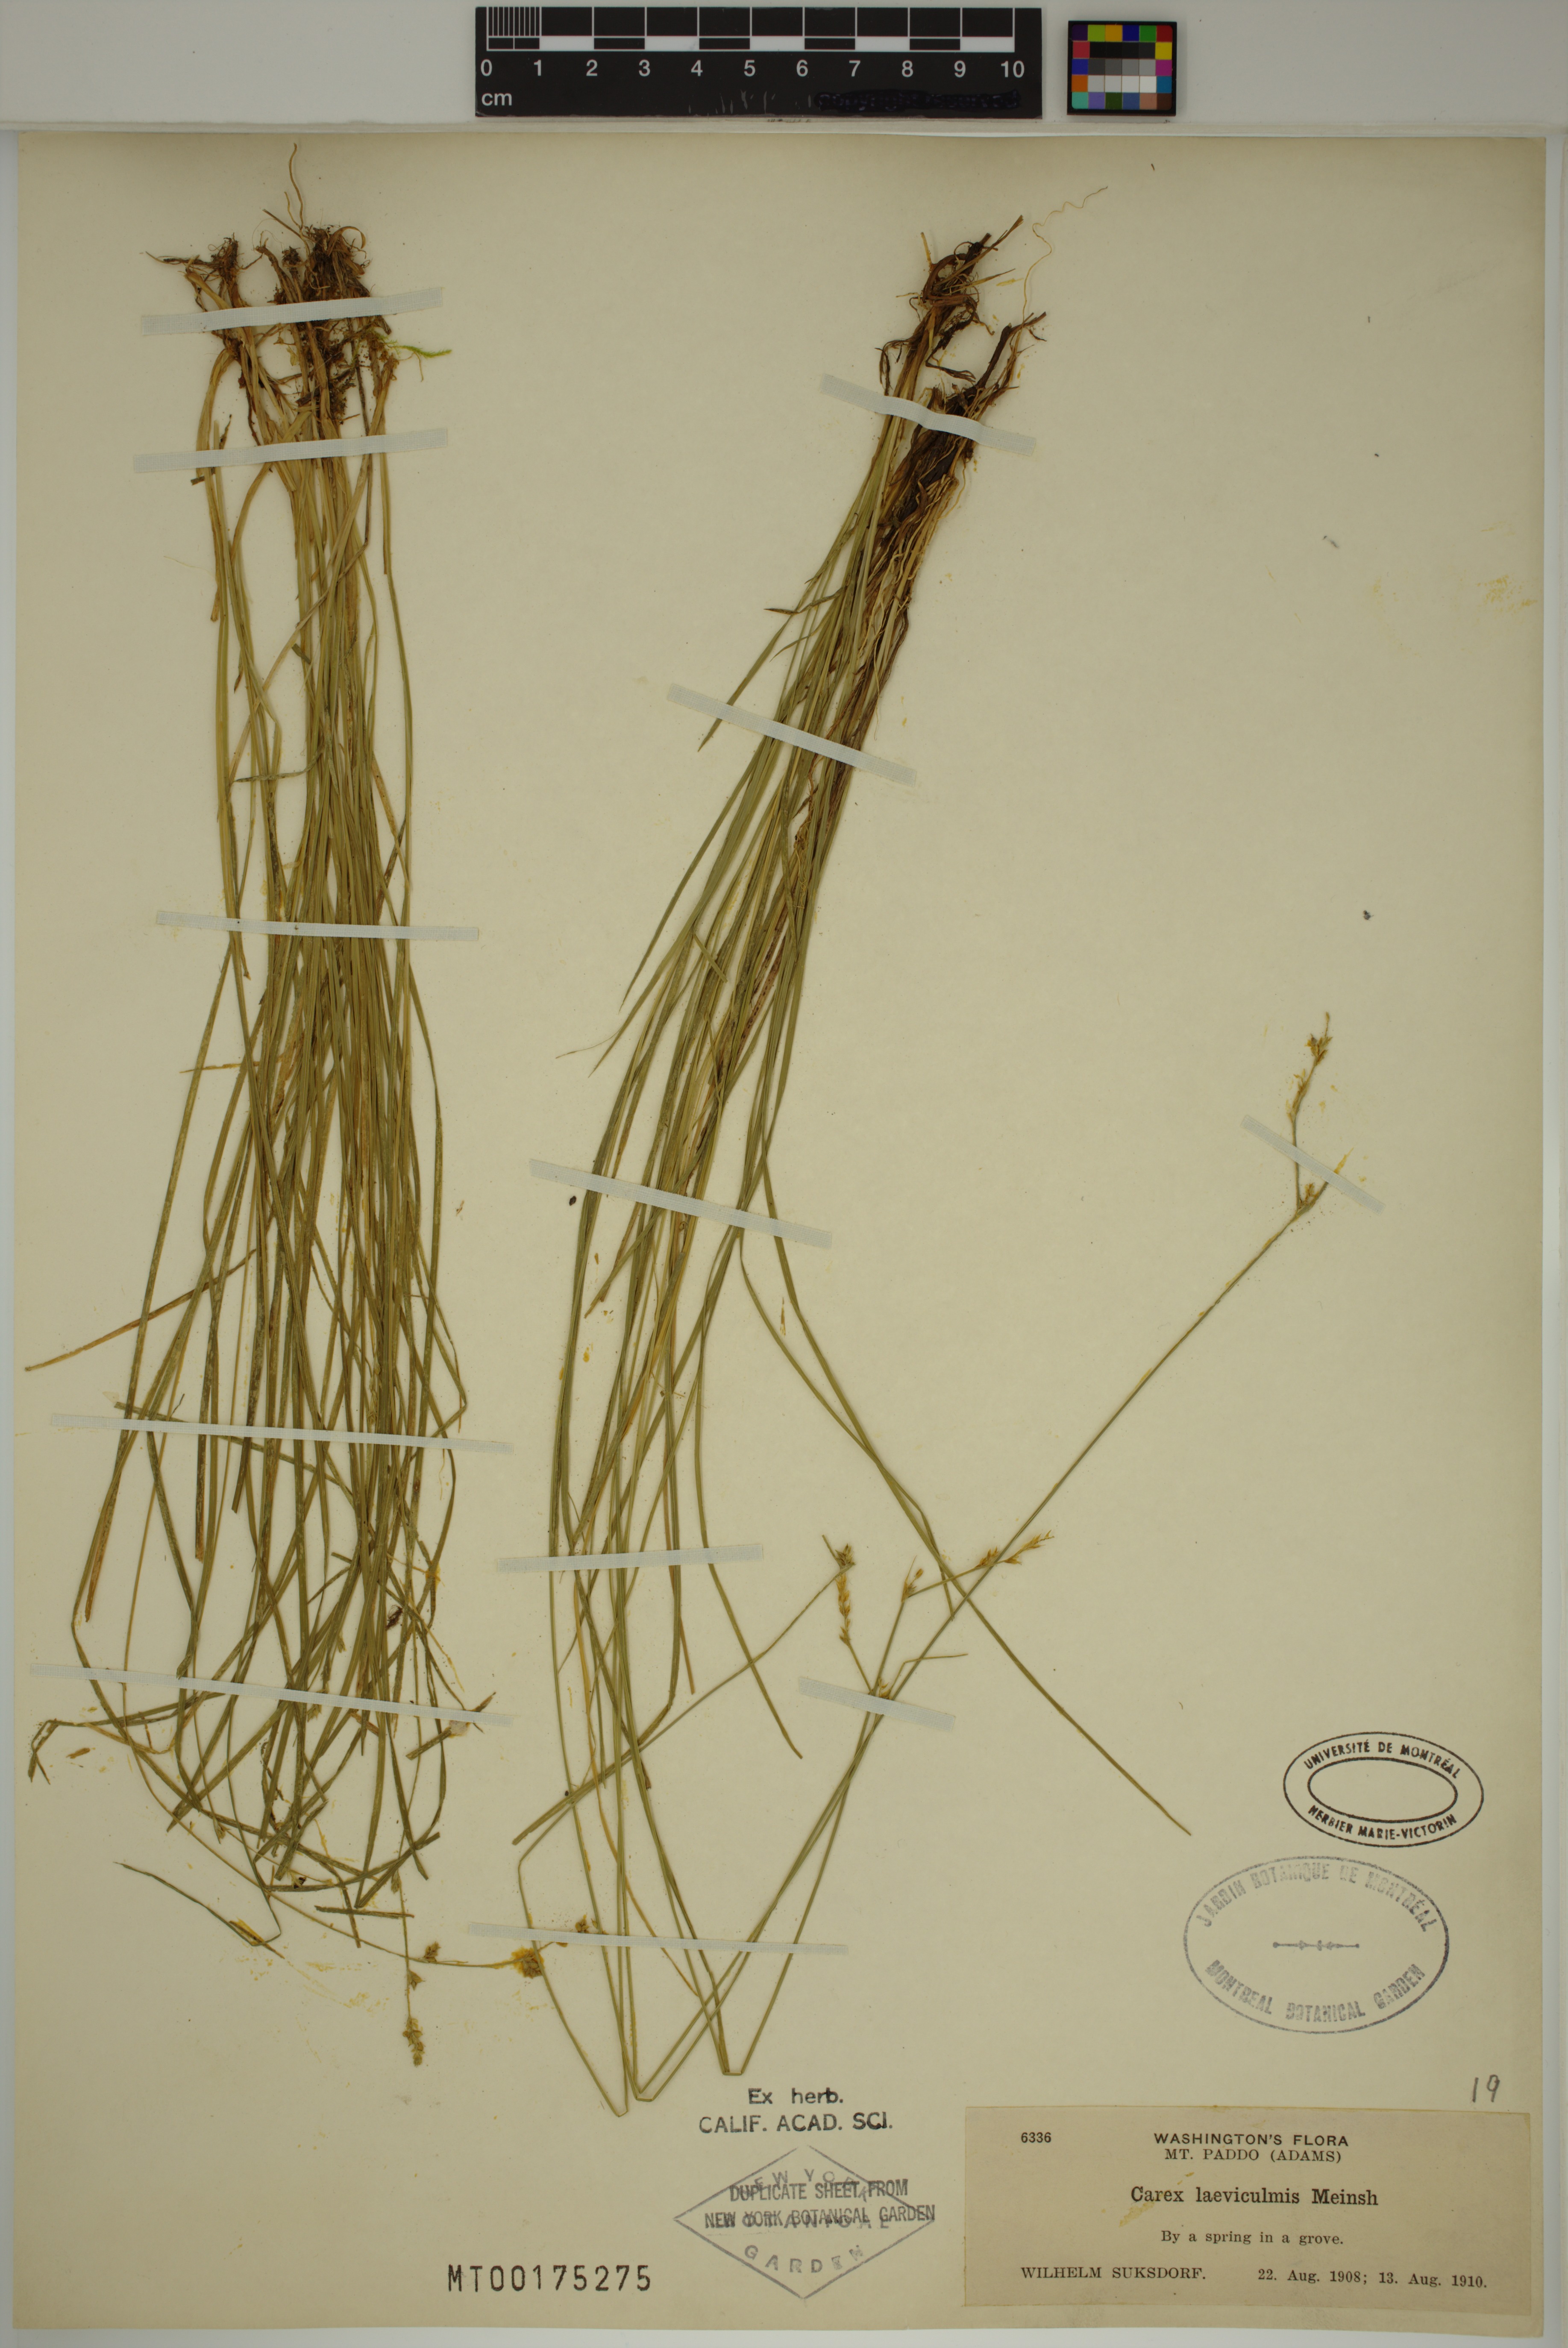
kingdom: Plantae
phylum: Tracheophyta
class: Liliopsida
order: Poales
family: Cyperaceae
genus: Carex
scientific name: Carex laeviculmis
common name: Smooth sedge
